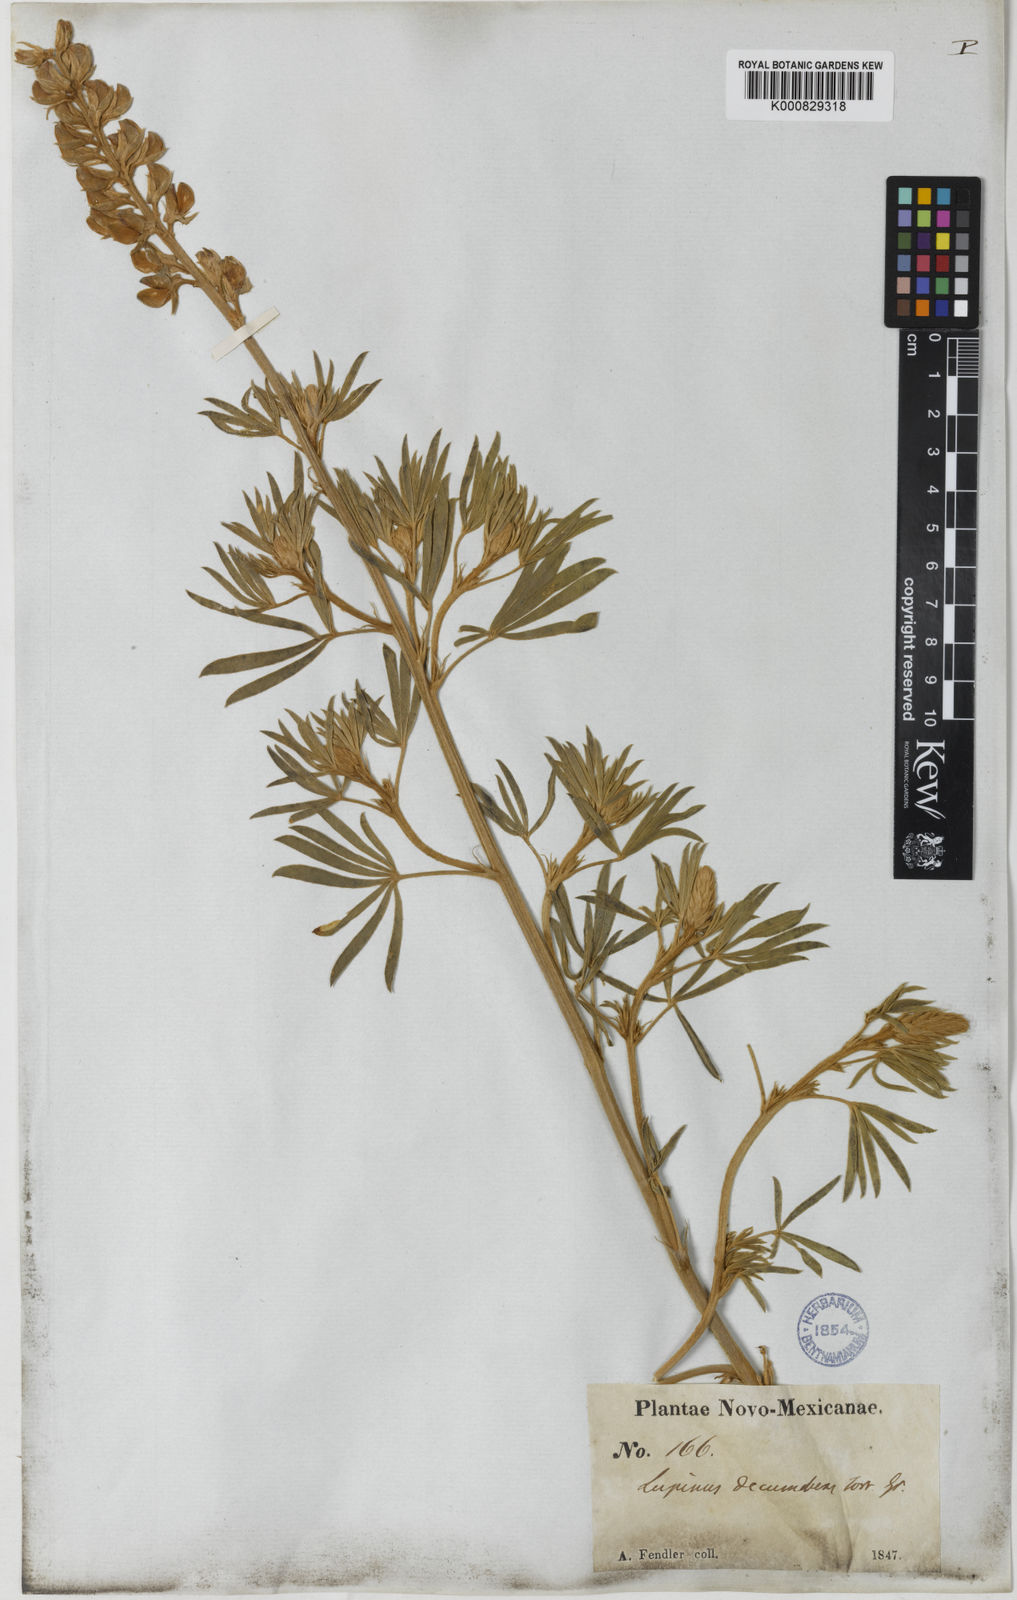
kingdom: Plantae
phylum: Tracheophyta
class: Magnoliopsida
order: Fabales
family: Fabaceae
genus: Lupinus
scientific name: Lupinus
